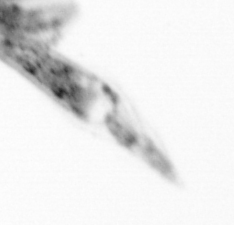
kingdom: Animalia
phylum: Arthropoda
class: Copepoda
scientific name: Copepoda
